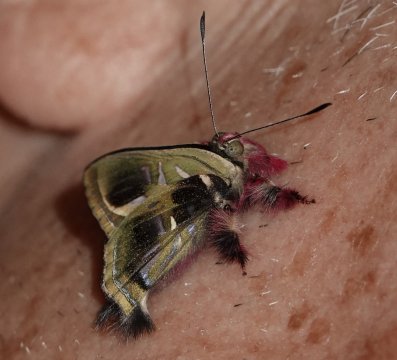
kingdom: Animalia
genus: Anteros
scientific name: Anteros renaldus
